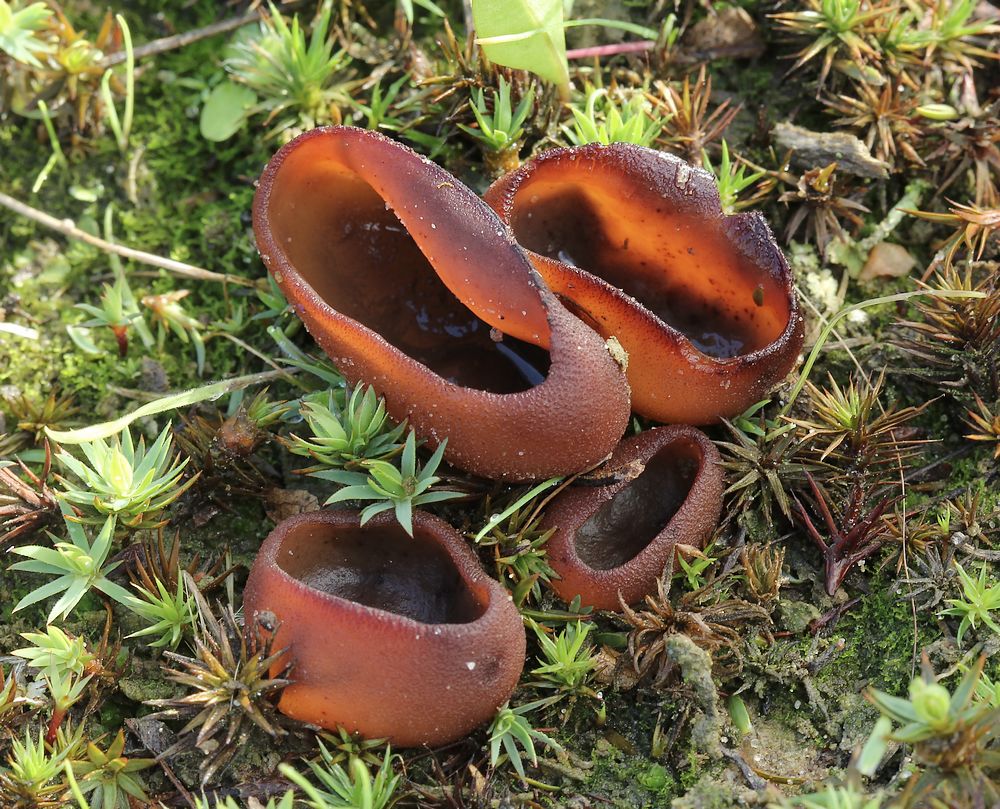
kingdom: Fungi
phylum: Ascomycota
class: Pezizomycetes
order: Pezizales
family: Pezizaceae
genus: Legaliana
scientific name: Legaliana badia
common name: leverbrun bægersvamp
